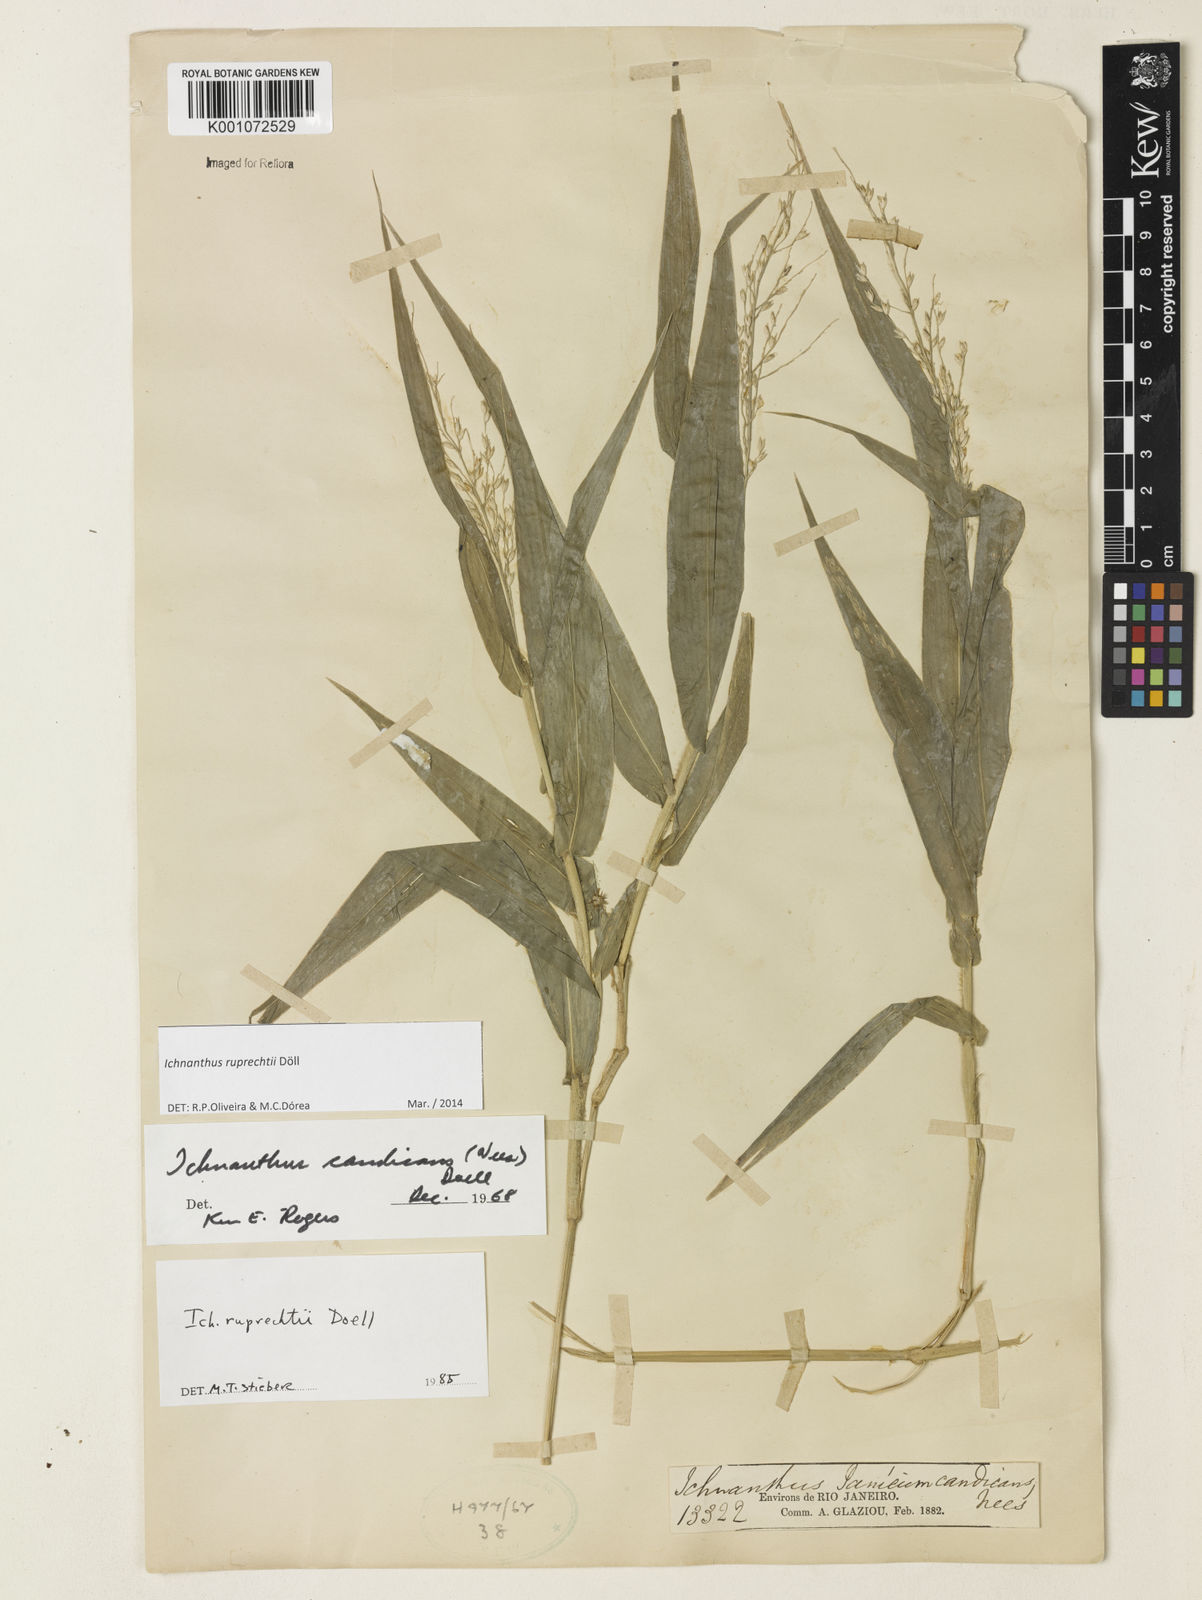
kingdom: Plantae
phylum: Tracheophyta
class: Liliopsida
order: Poales
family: Poaceae
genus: Ichnanthus
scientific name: Ichnanthus
